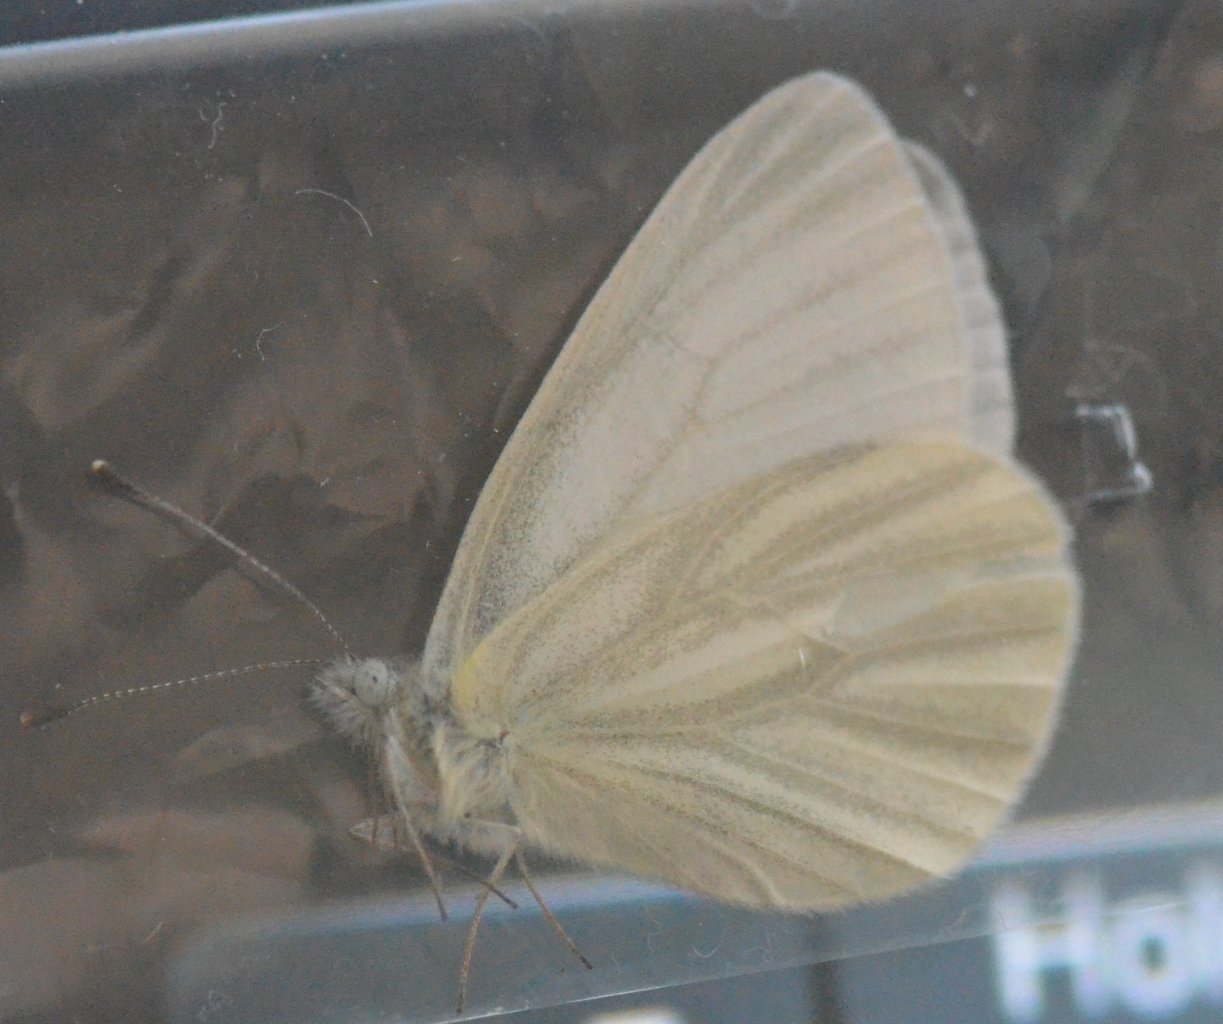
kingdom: Animalia
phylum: Arthropoda
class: Insecta
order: Lepidoptera
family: Pieridae
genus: Pieris
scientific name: Pieris virginiensis
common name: West Virginia White
